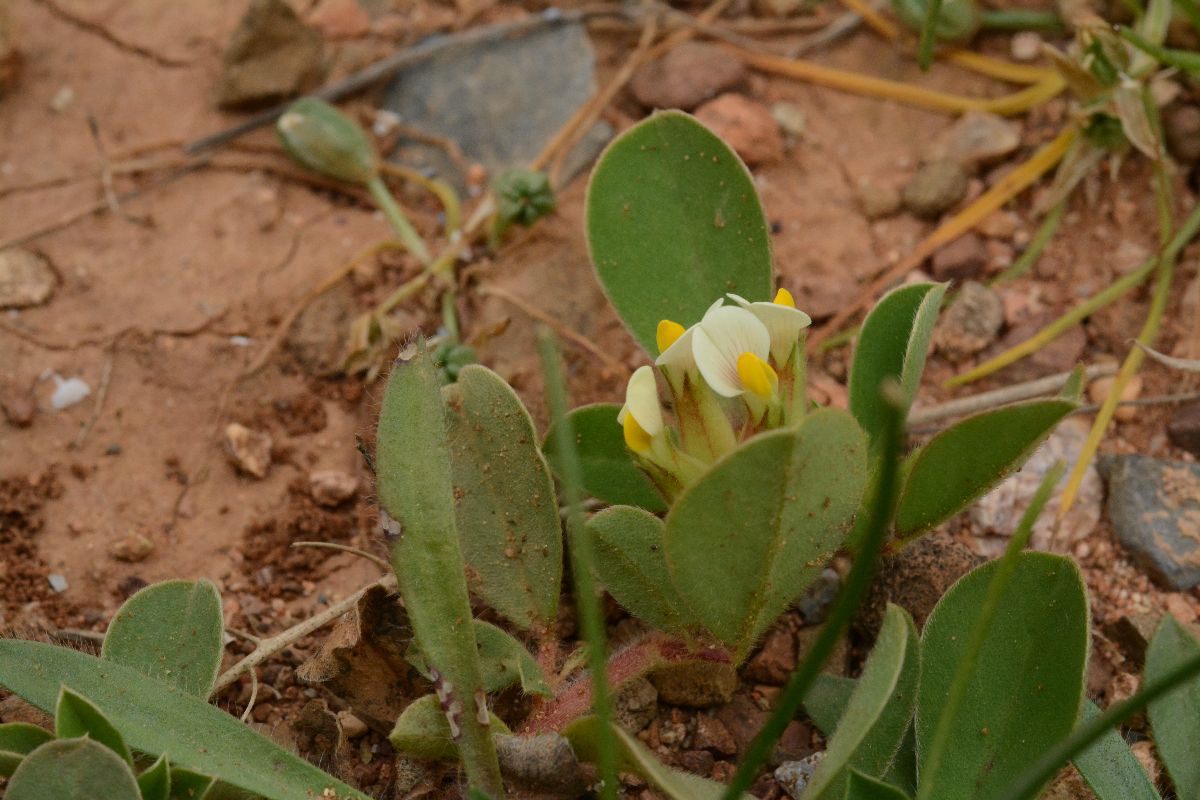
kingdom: Plantae
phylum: Tracheophyta
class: Magnoliopsida
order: Fabales
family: Fabaceae
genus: Medicago
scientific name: Medicago monspeliaca
